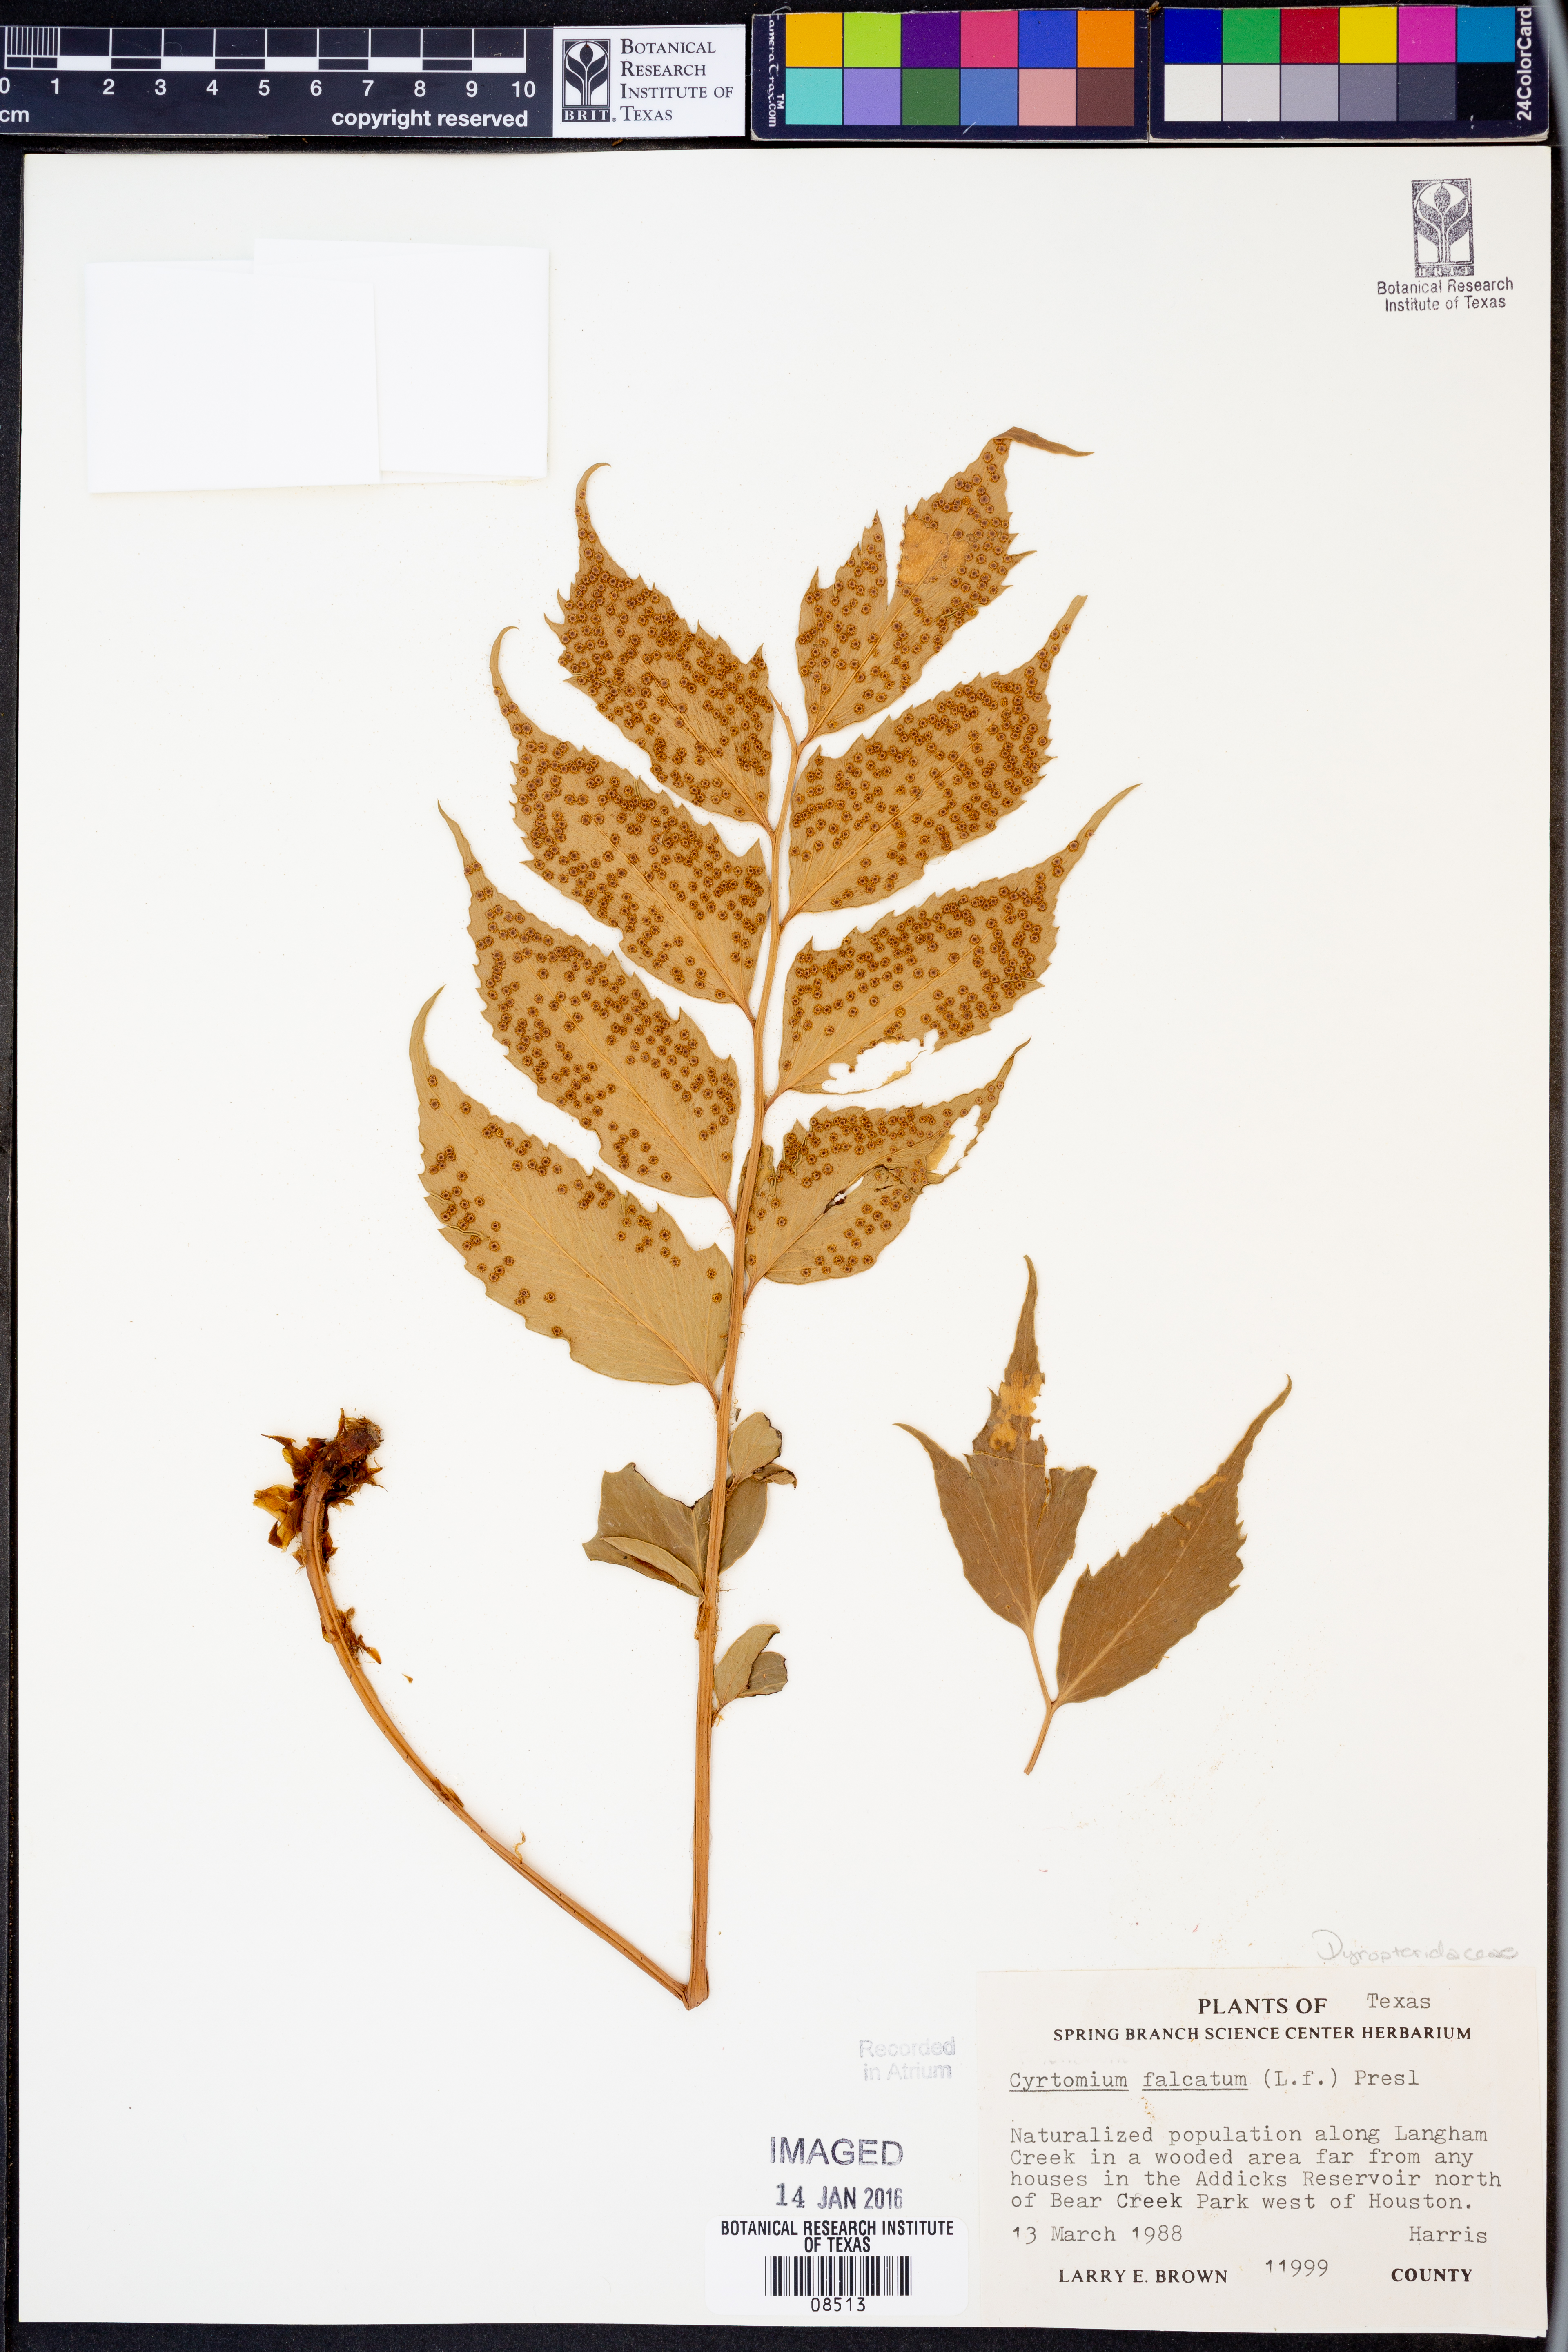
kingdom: Plantae
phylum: Tracheophyta
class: Polypodiopsida
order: Polypodiales
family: Dryopteridaceae
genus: Cyrtomium
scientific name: Cyrtomium falcatum
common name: House holly-fern
